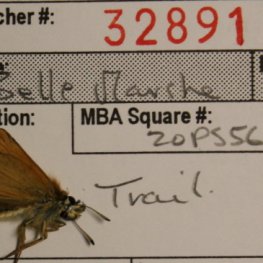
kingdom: Animalia
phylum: Arthropoda
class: Insecta
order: Lepidoptera
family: Hesperiidae
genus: Thymelicus
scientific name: Thymelicus lineola
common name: European Skipper
